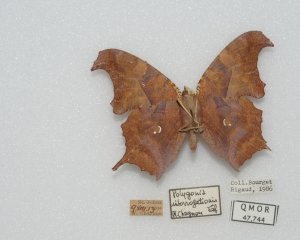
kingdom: Animalia
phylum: Arthropoda
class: Insecta
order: Lepidoptera
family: Nymphalidae
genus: Polygonia
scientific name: Polygonia interrogationis
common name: Question Mark
